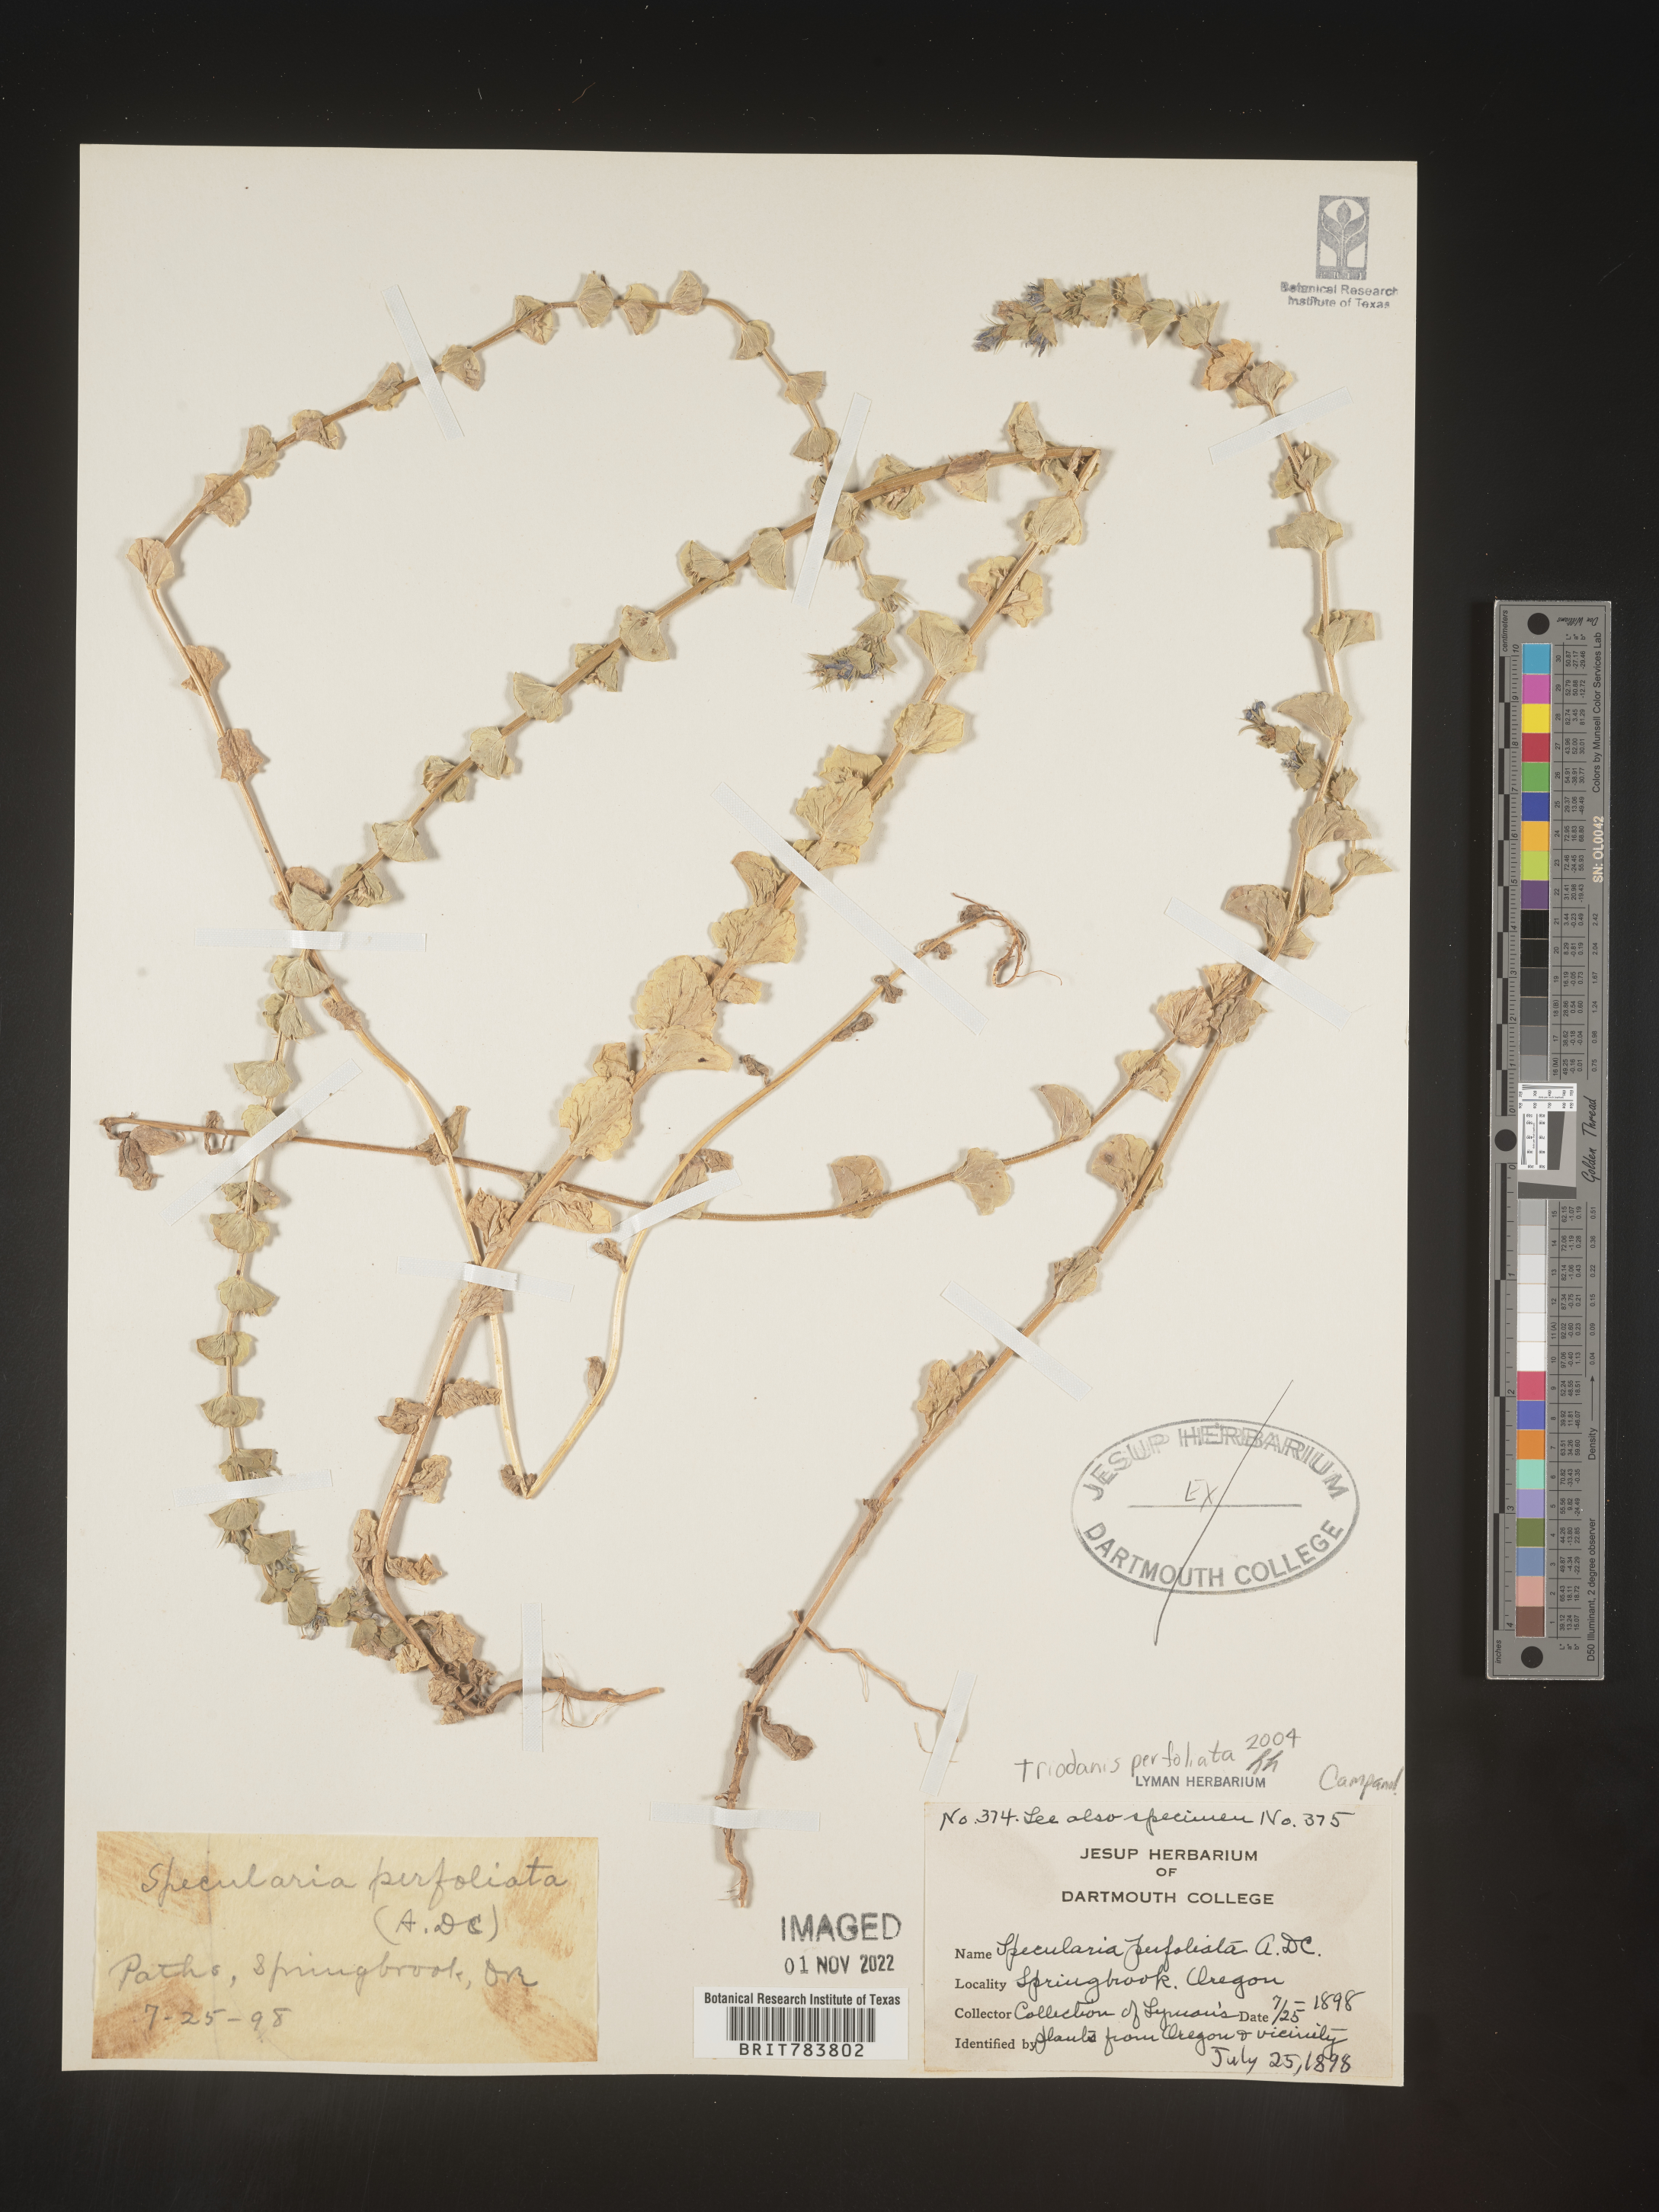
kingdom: Plantae
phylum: Tracheophyta
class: Magnoliopsida
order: Asterales
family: Campanulaceae
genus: Triodanis
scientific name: Triodanis perfoliata
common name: Clasping venus' looking-glass
